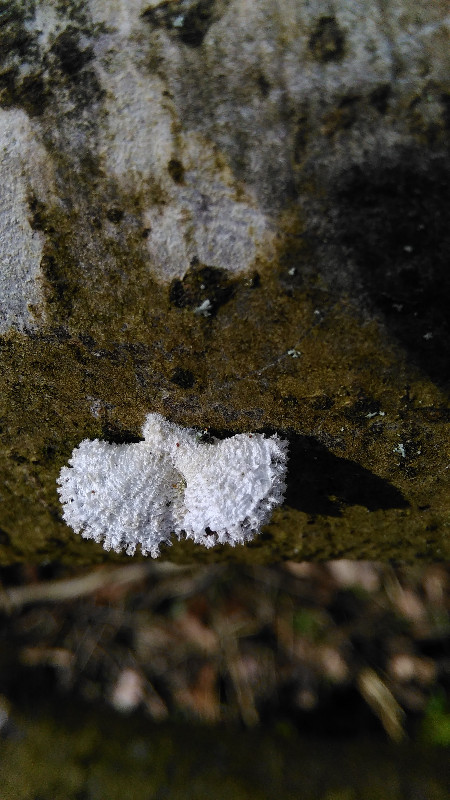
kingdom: Fungi
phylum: Basidiomycota
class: Agaricomycetes
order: Agaricales
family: Schizophyllaceae
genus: Schizophyllum
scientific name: Schizophyllum commune
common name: kløvblad
